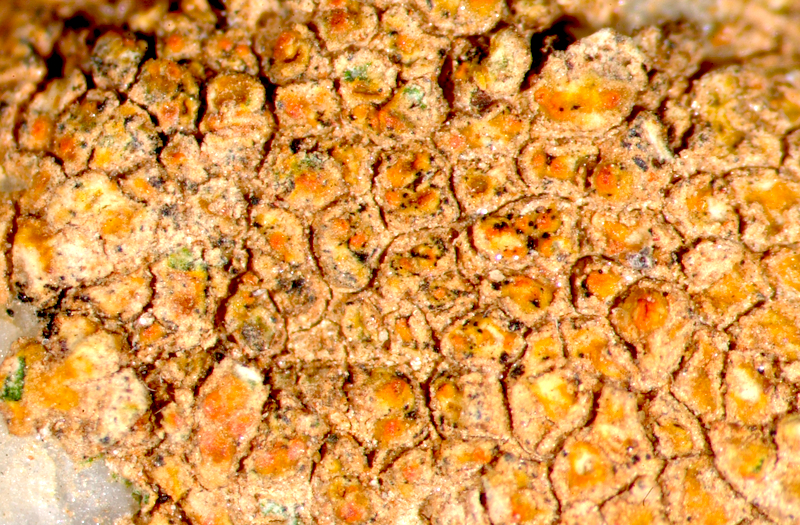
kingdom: Fungi
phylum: Ascomycota
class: Lecanoromycetes
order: Teloschistales
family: Teloschistaceae
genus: Caloplaca
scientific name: Caloplaca rubelliana
